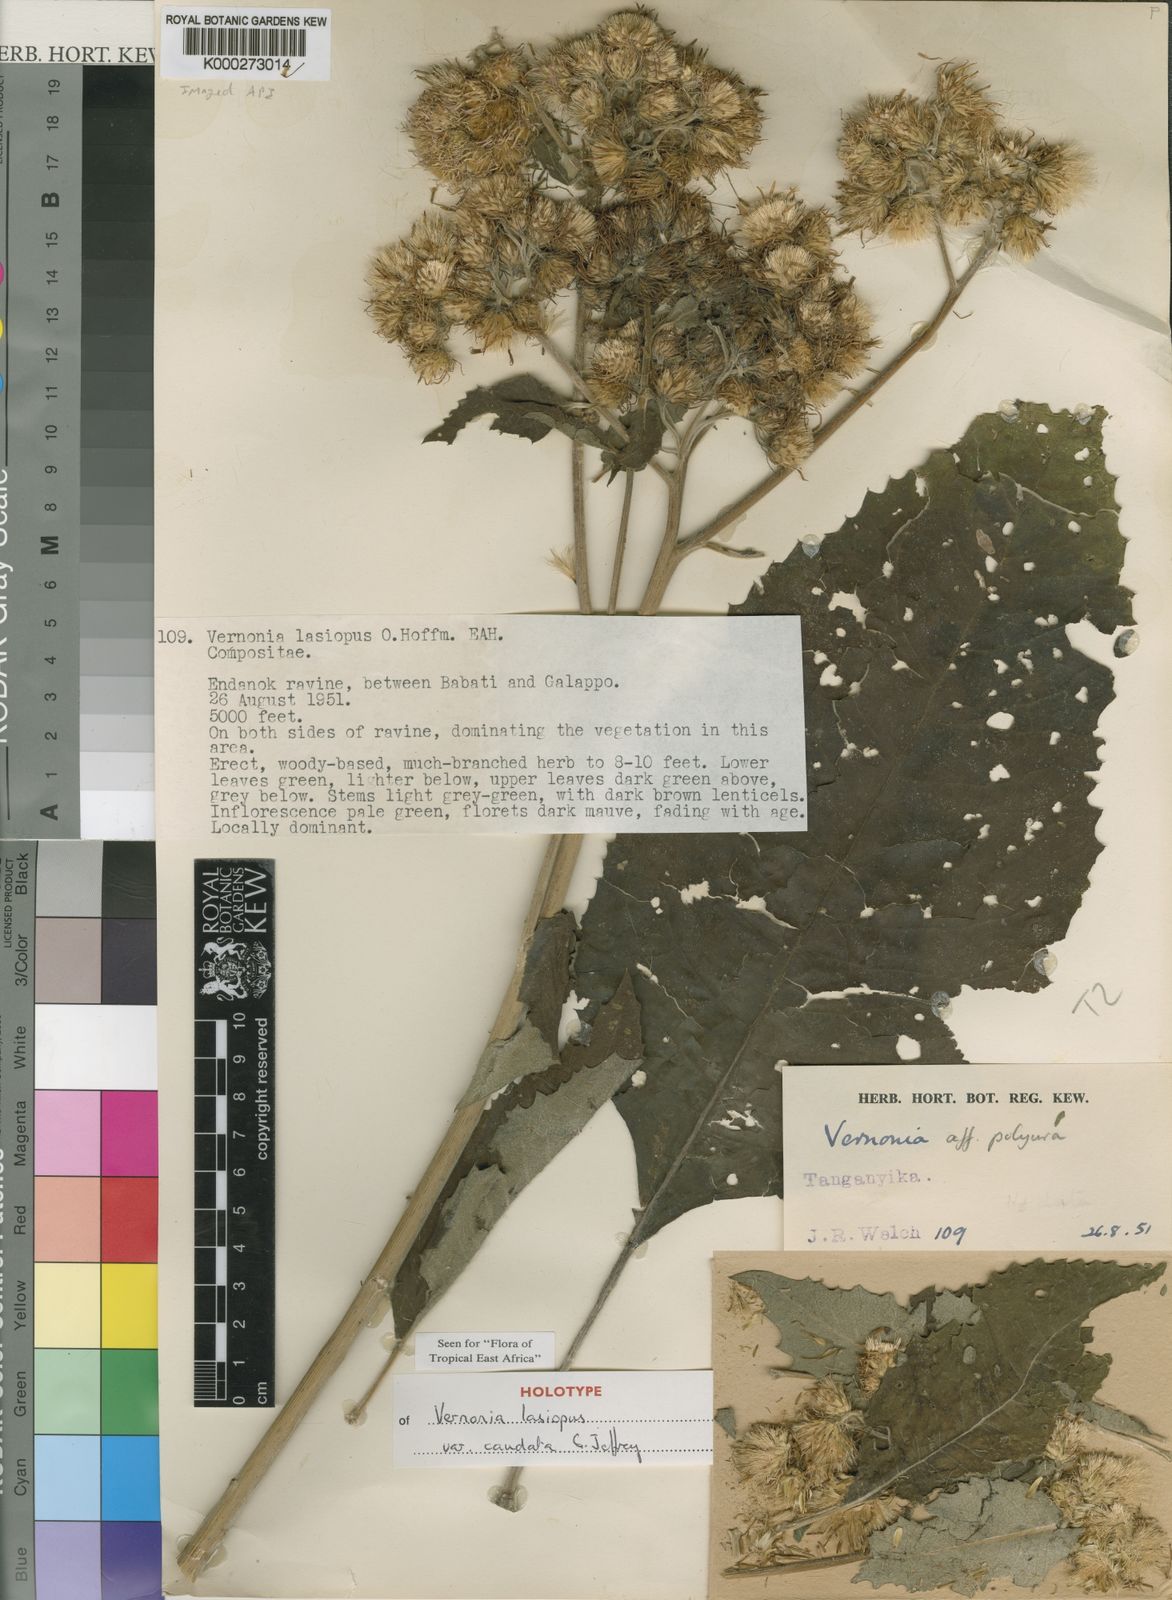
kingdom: Plantae
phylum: Tracheophyta
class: Magnoliopsida
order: Asterales
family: Asteraceae
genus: Baccharoides
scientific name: Baccharoides lasiopus
